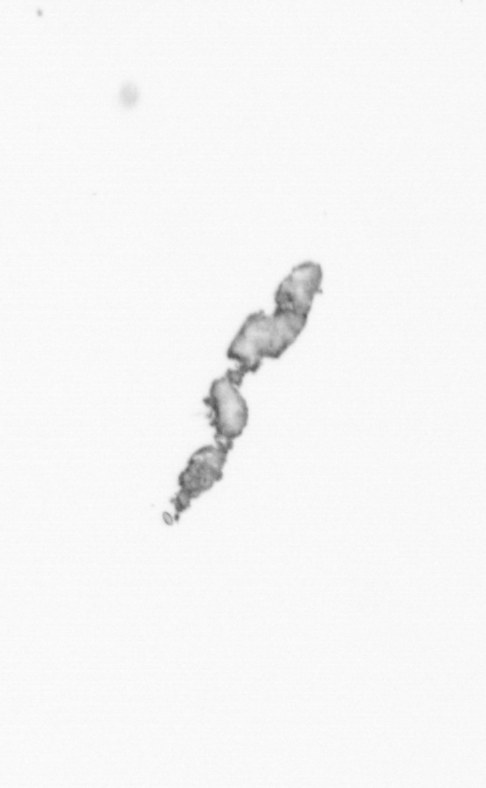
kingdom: Chromista
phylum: Ochrophyta
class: Bacillariophyceae
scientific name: Bacillariophyceae
